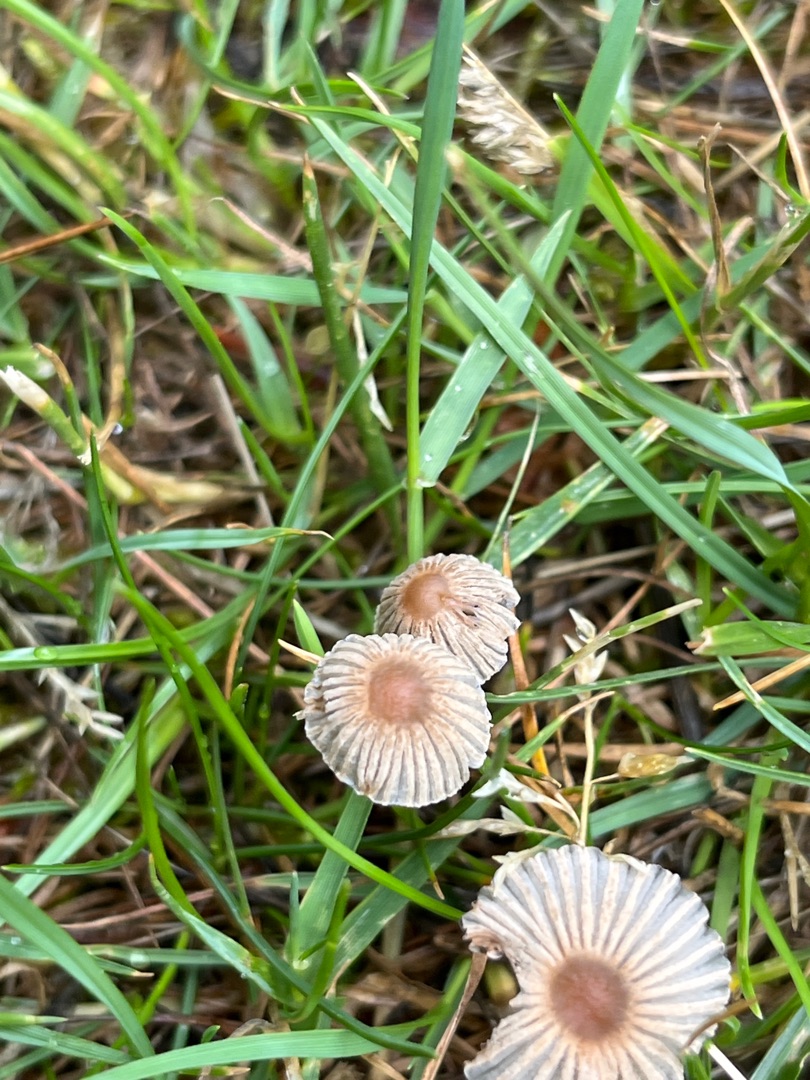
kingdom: Fungi
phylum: Basidiomycota
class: Agaricomycetes
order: Agaricales
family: Psathyrellaceae
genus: Parasola
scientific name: Parasola
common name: Hjulhat
